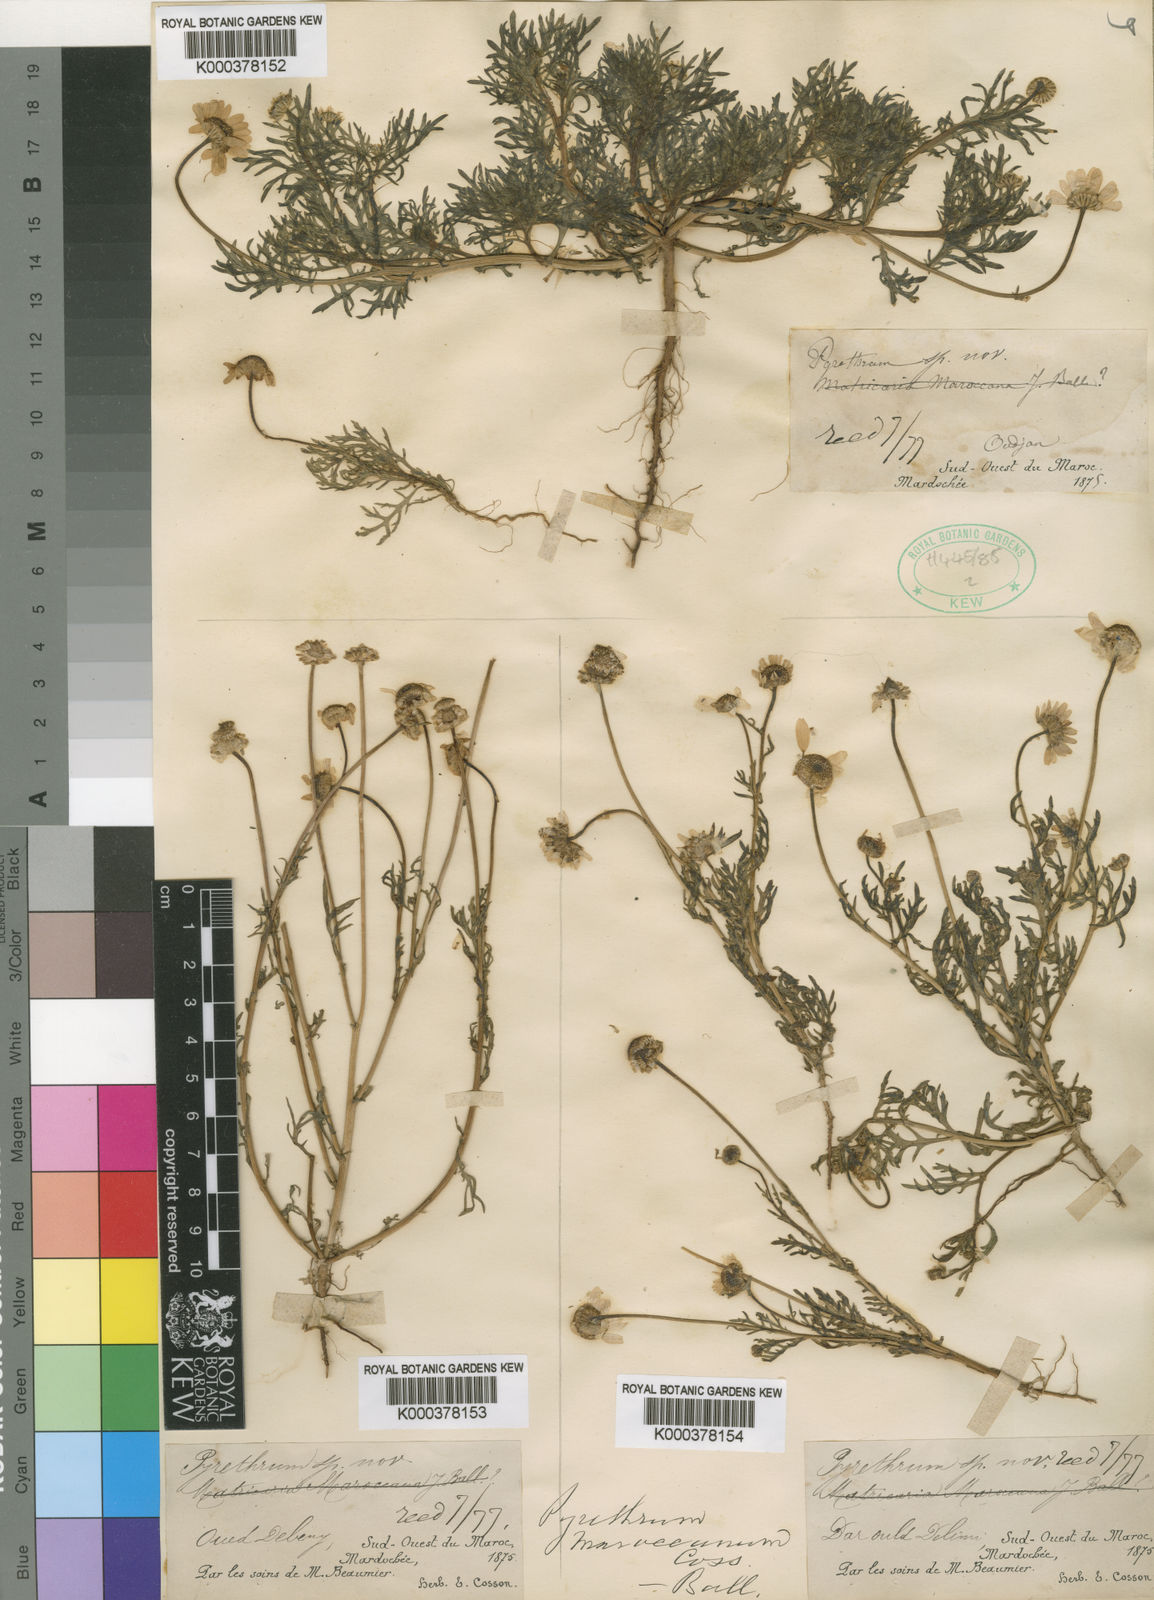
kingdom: Plantae
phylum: Tracheophyta
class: Magnoliopsida
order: Asterales
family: Asteraceae
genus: Rhodanthemum
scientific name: Rhodanthemum maroccanum
